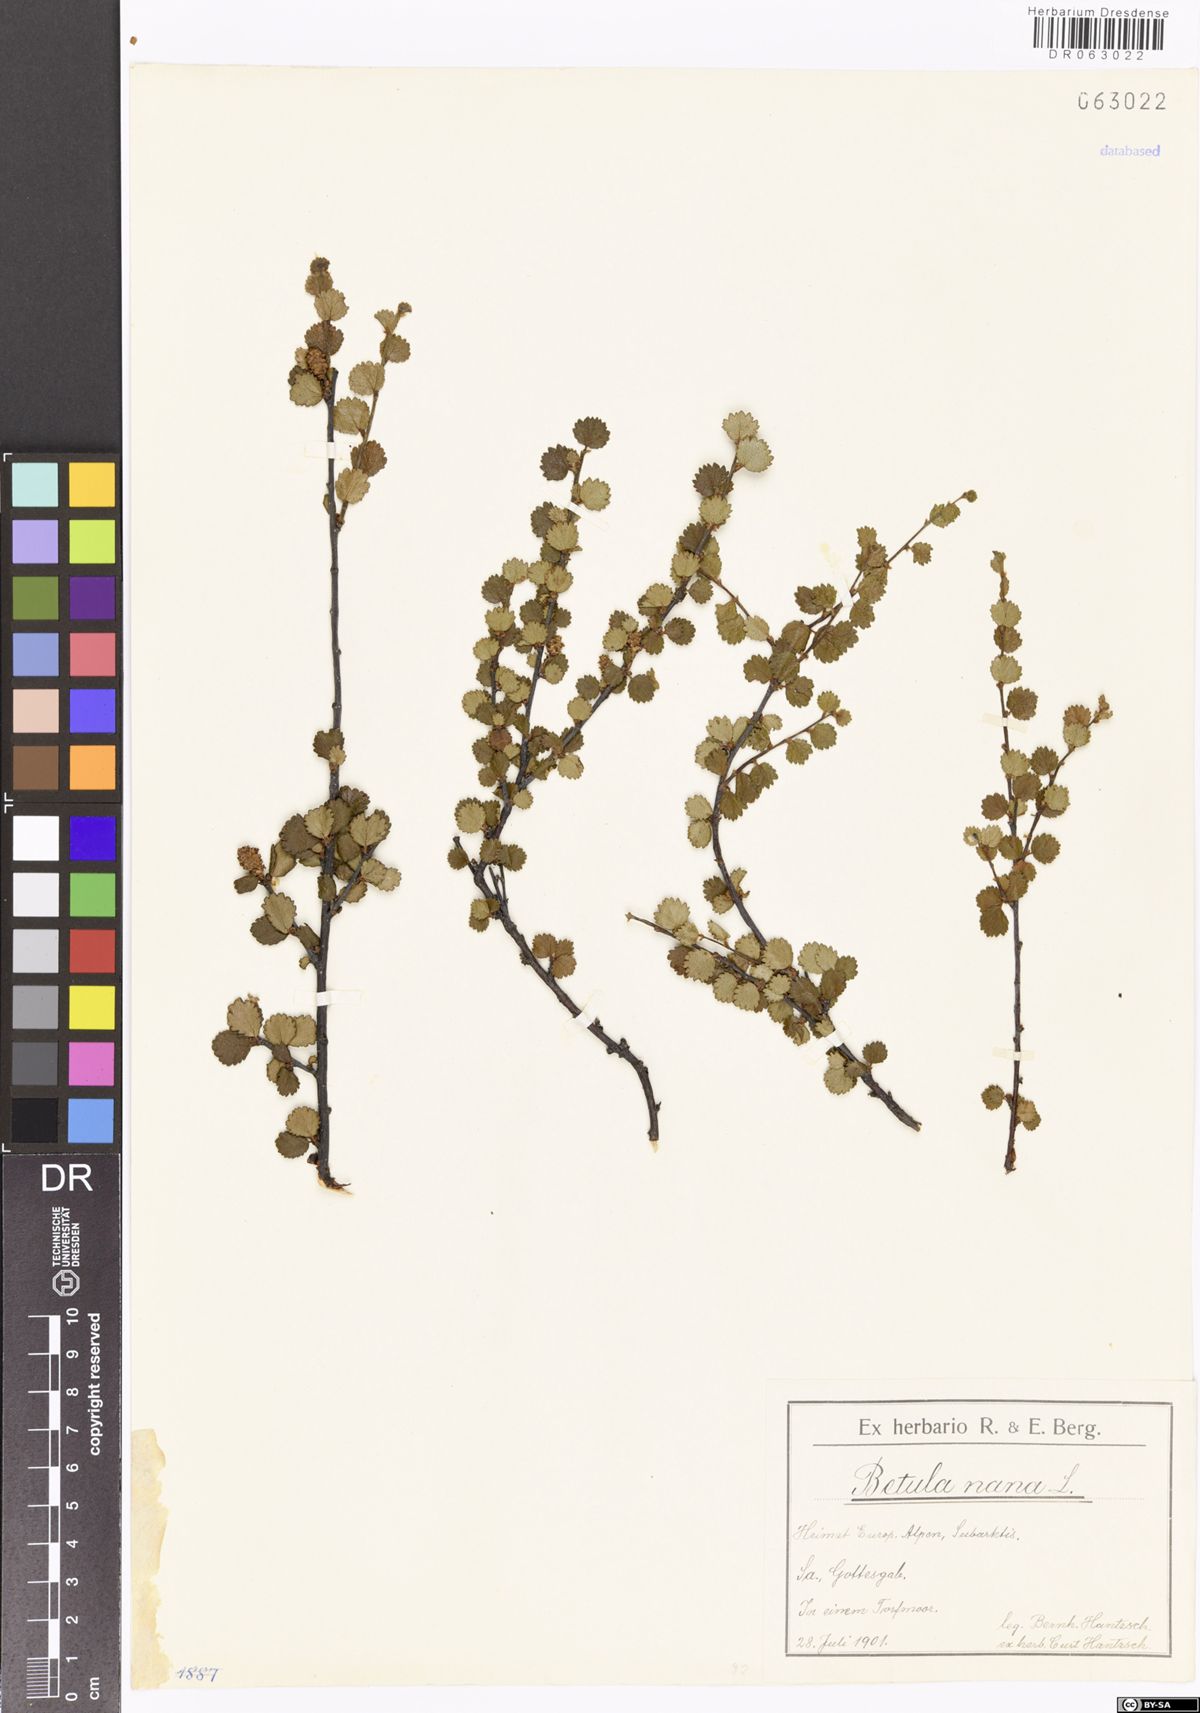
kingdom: Plantae
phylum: Tracheophyta
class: Magnoliopsida
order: Fagales
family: Betulaceae
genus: Betula
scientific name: Betula nana
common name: Arctic dwarf birch
